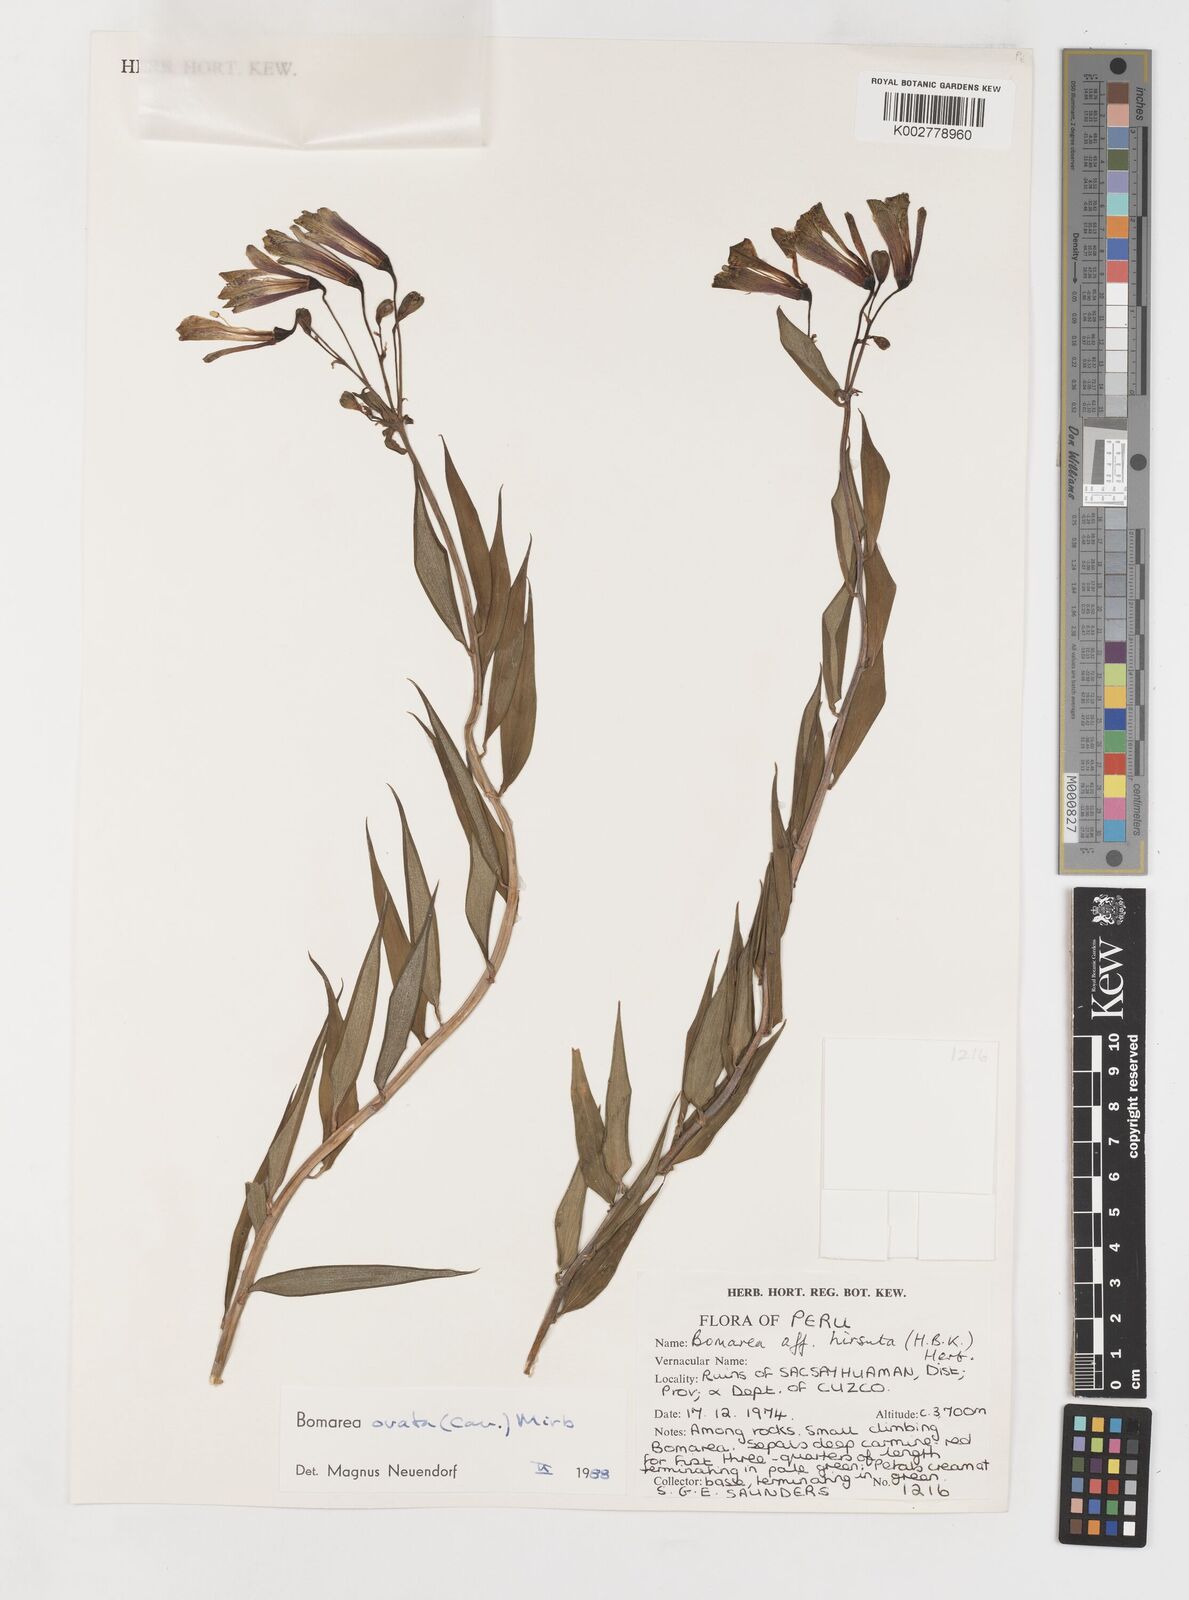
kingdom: Plantae
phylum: Tracheophyta
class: Liliopsida
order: Liliales
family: Alstroemeriaceae
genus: Bomarea
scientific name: Bomarea ovata
